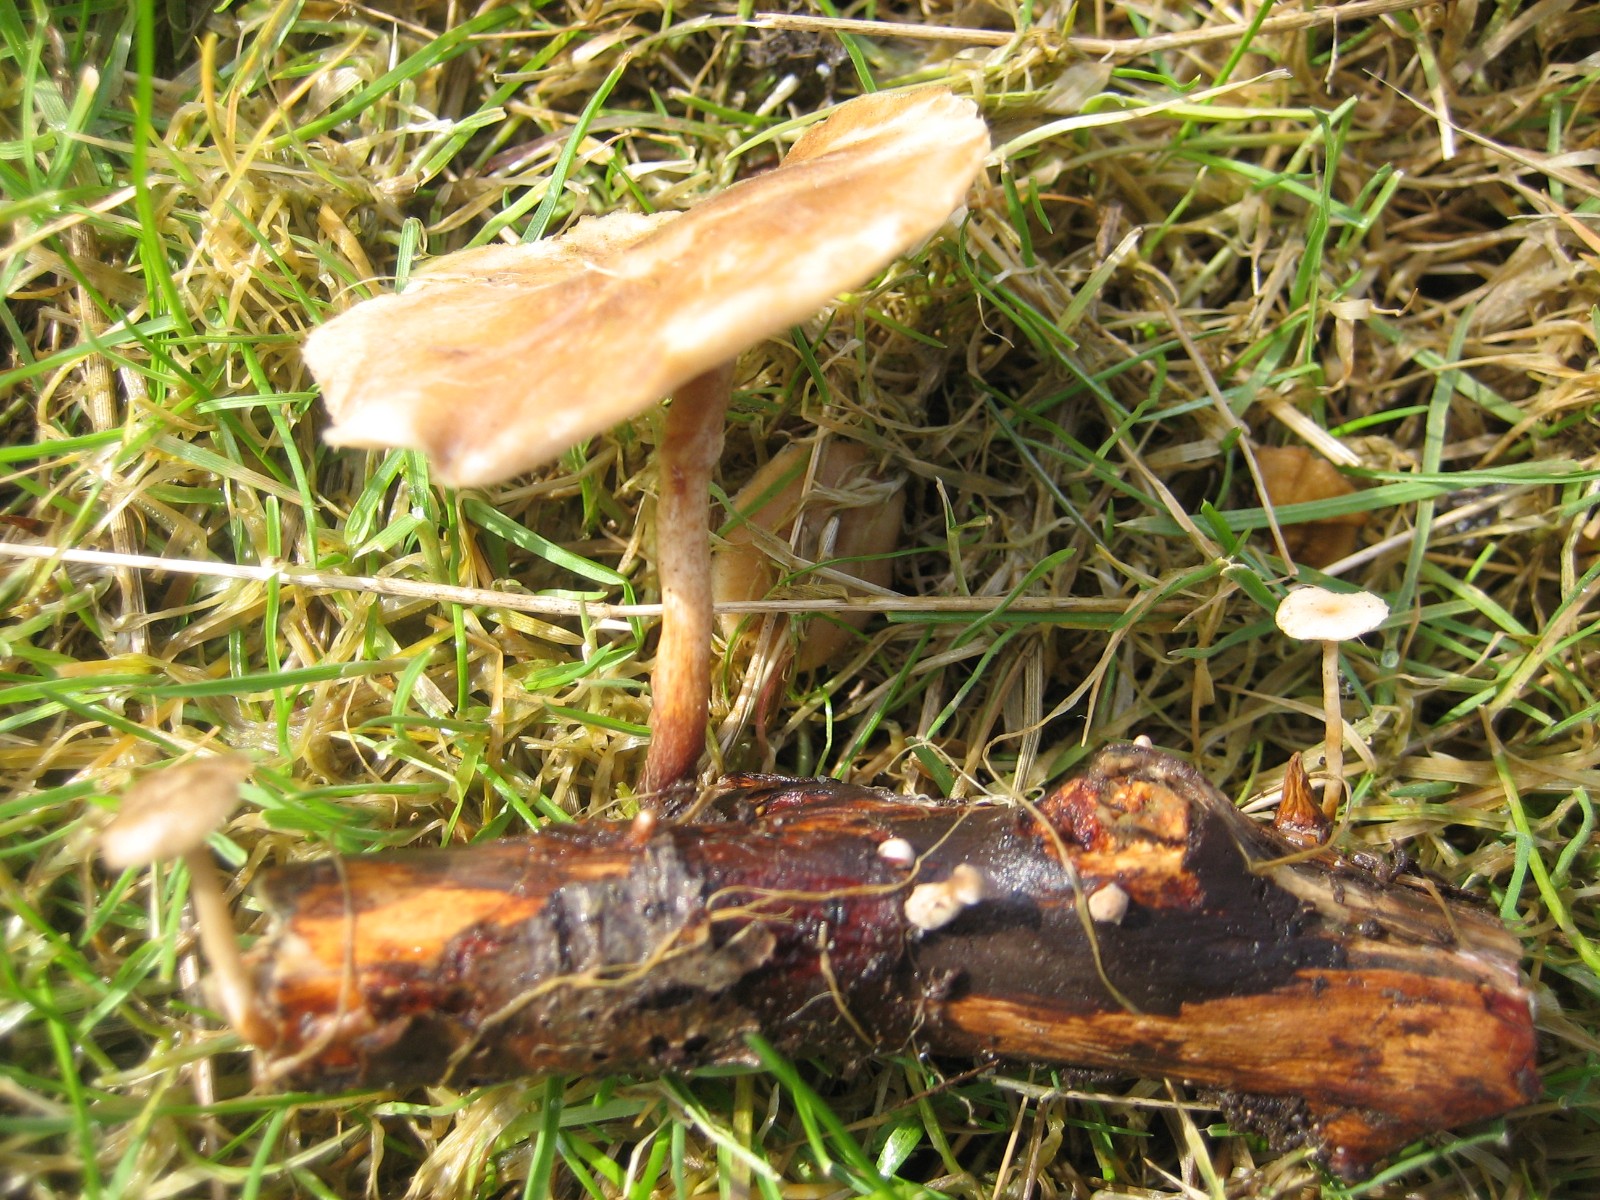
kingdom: Fungi
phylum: Basidiomycota
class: Agaricomycetes
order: Polyporales
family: Polyporaceae
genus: Lentinus
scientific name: Lentinus brumalis
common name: vinter-stilkporesvamp
